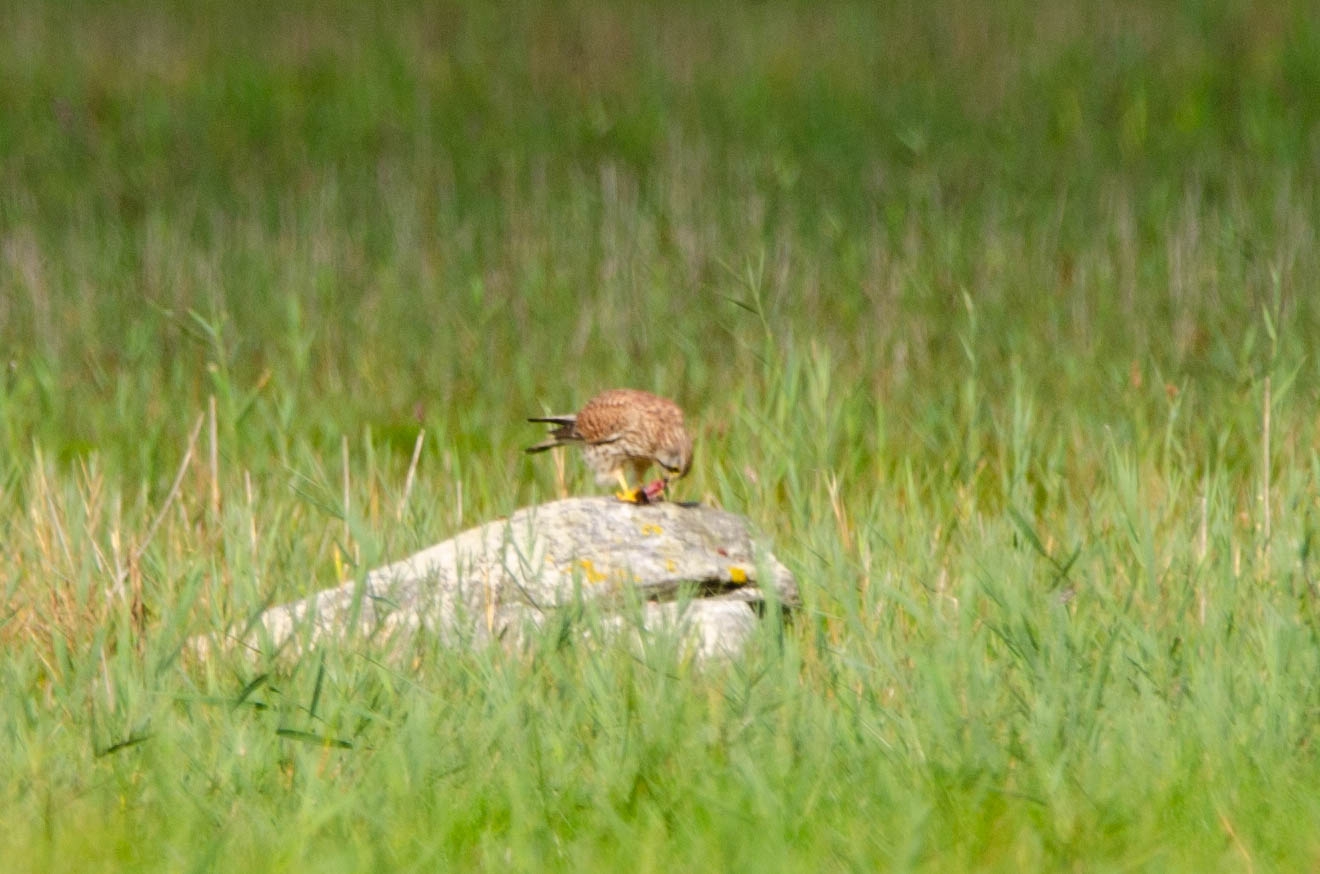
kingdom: Animalia
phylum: Chordata
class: Aves
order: Falconiformes
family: Falconidae
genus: Falco
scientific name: Falco tinnunculus
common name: Tårnfalk
